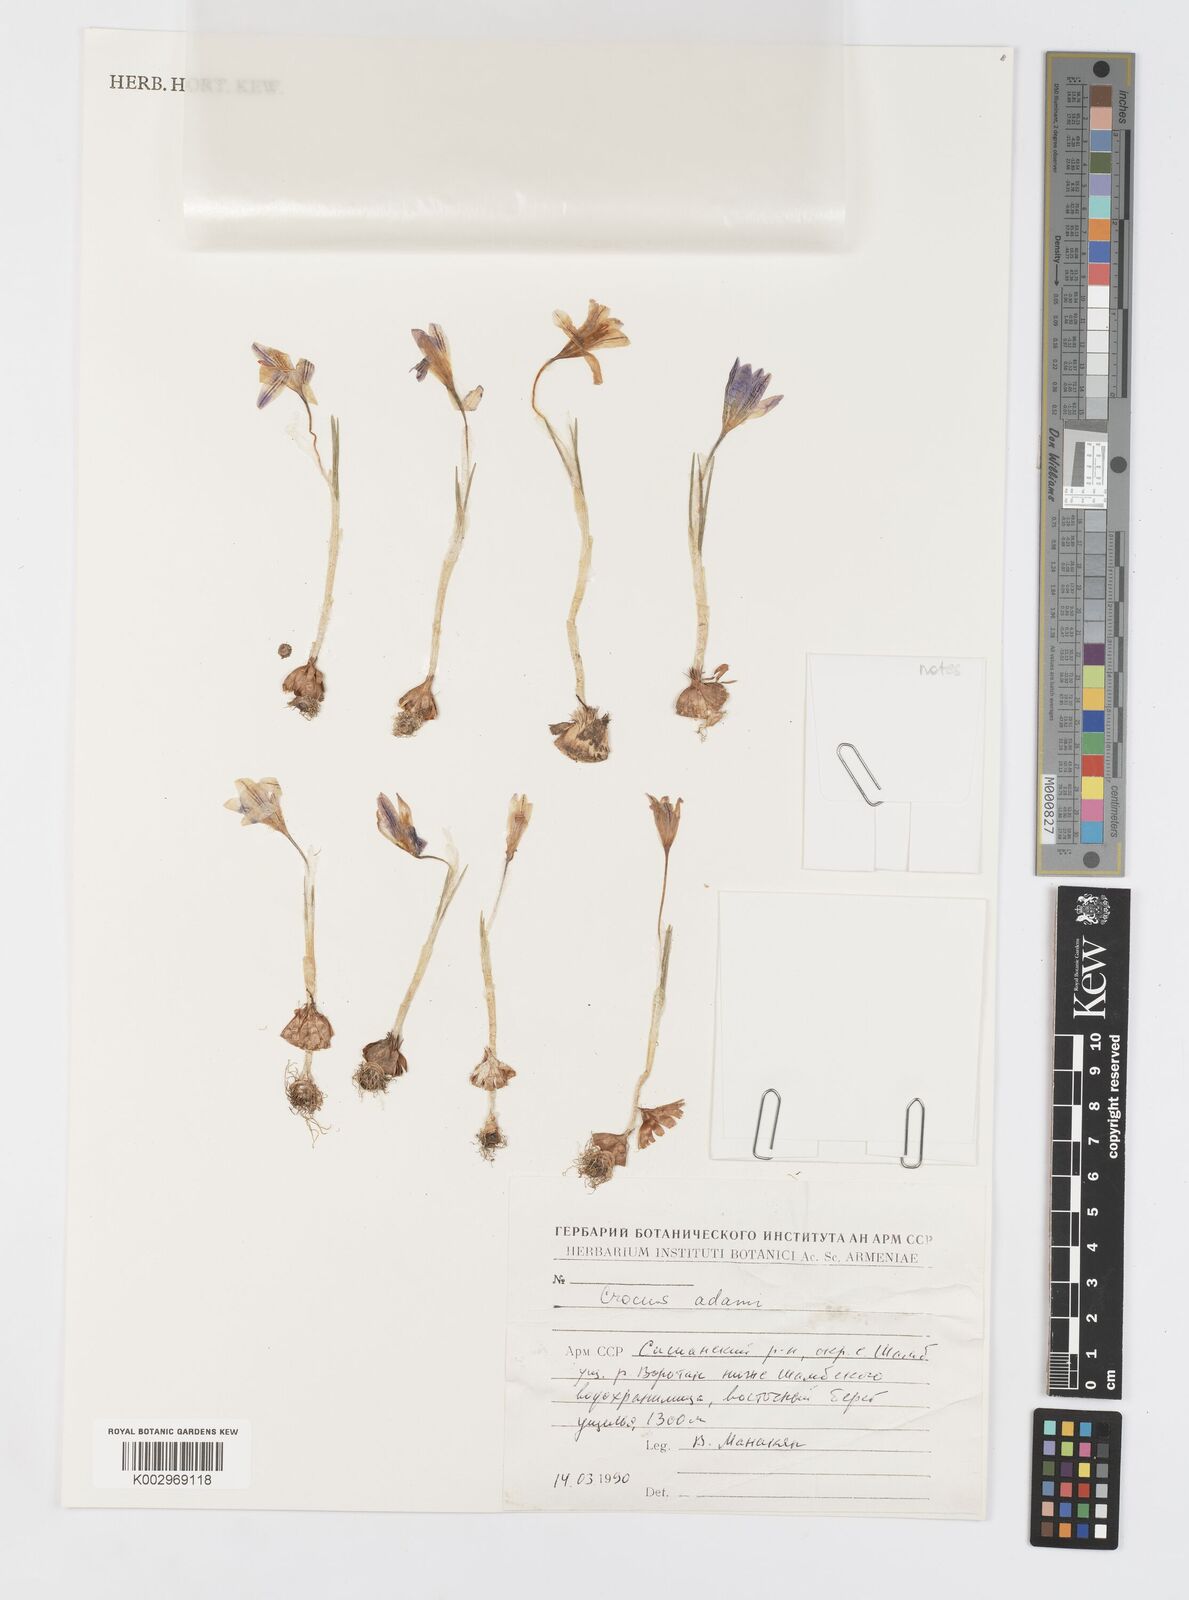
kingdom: Plantae
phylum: Tracheophyta
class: Liliopsida
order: Asparagales
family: Iridaceae
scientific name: Iridaceae
